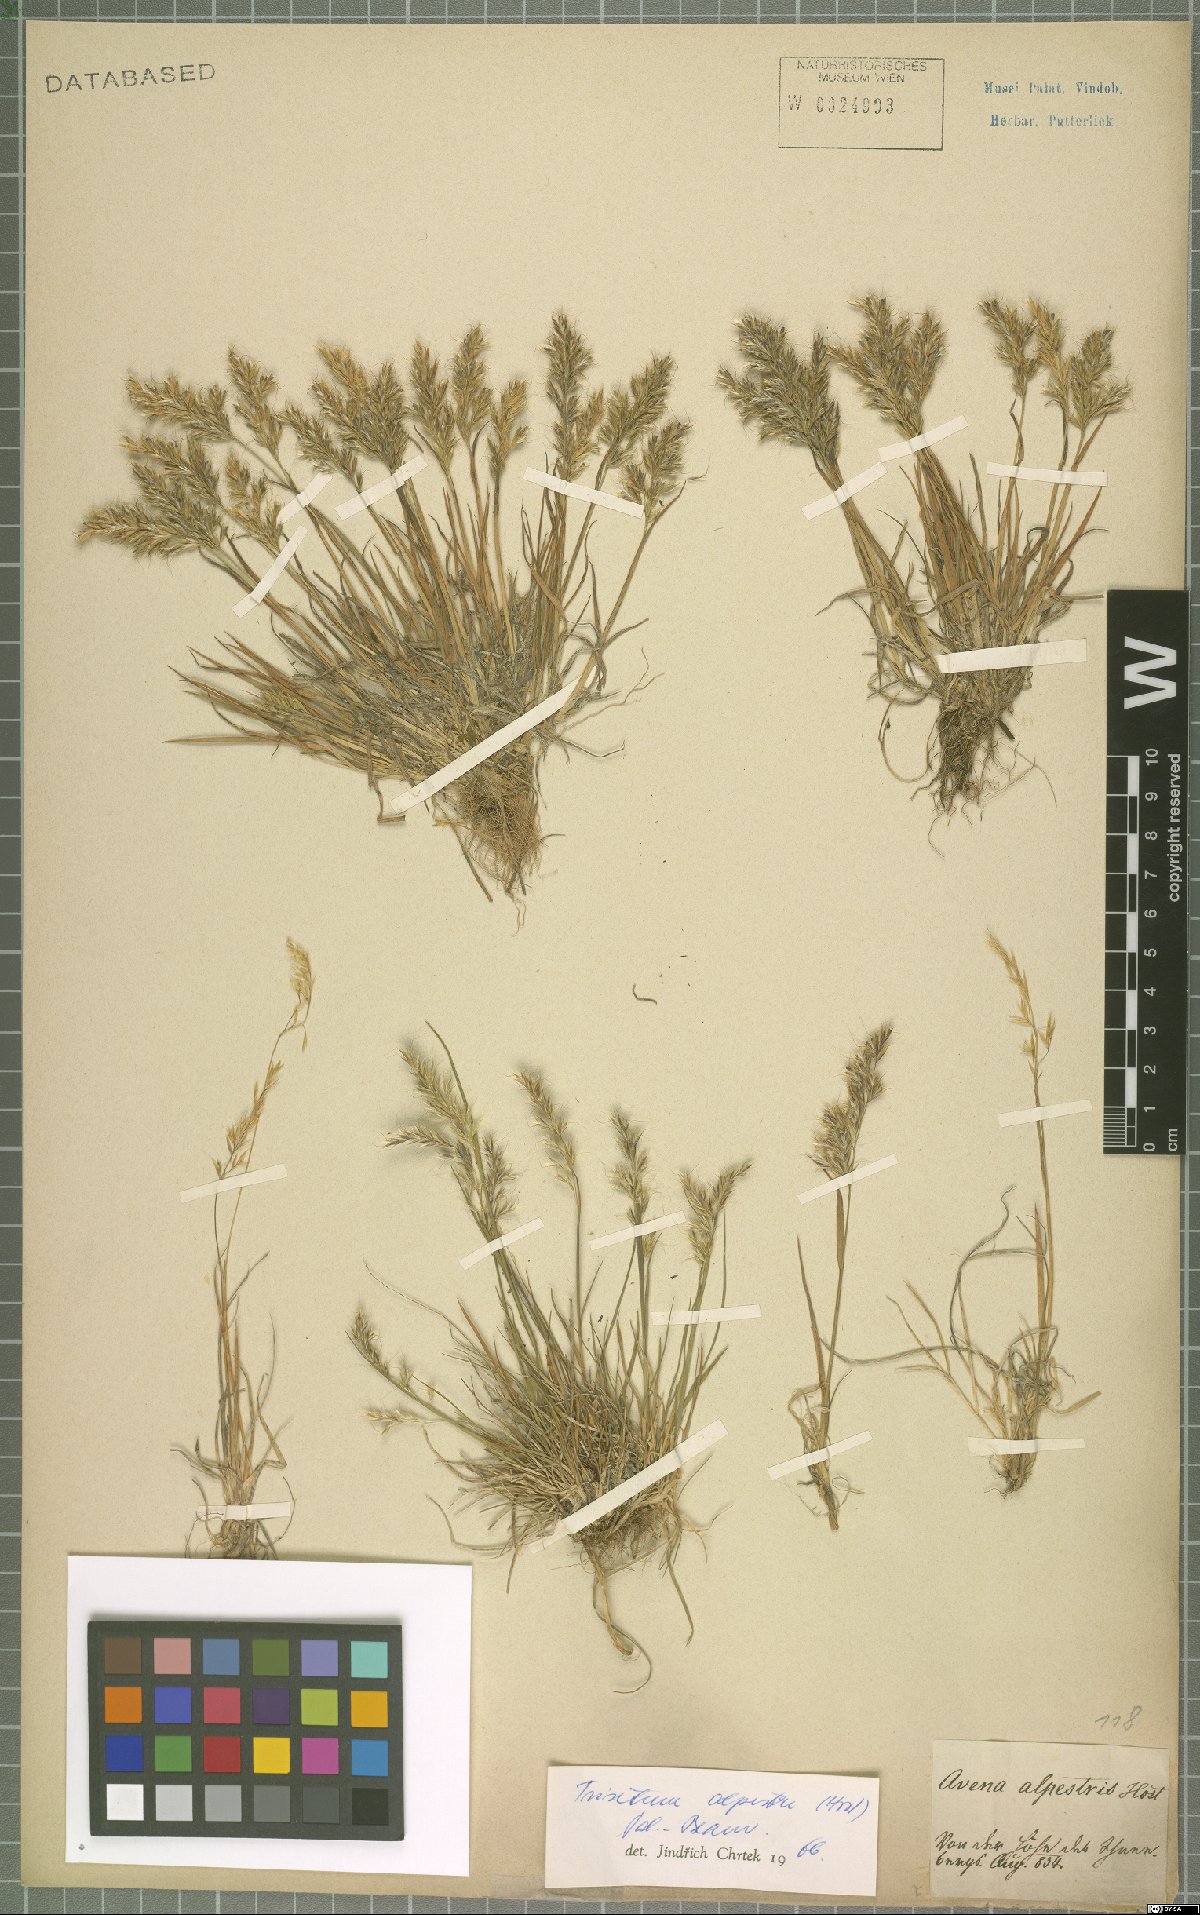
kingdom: Plantae
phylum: Tracheophyta
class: Liliopsida
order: Poales
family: Poaceae
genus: Trisetum
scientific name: Trisetum alpestre
